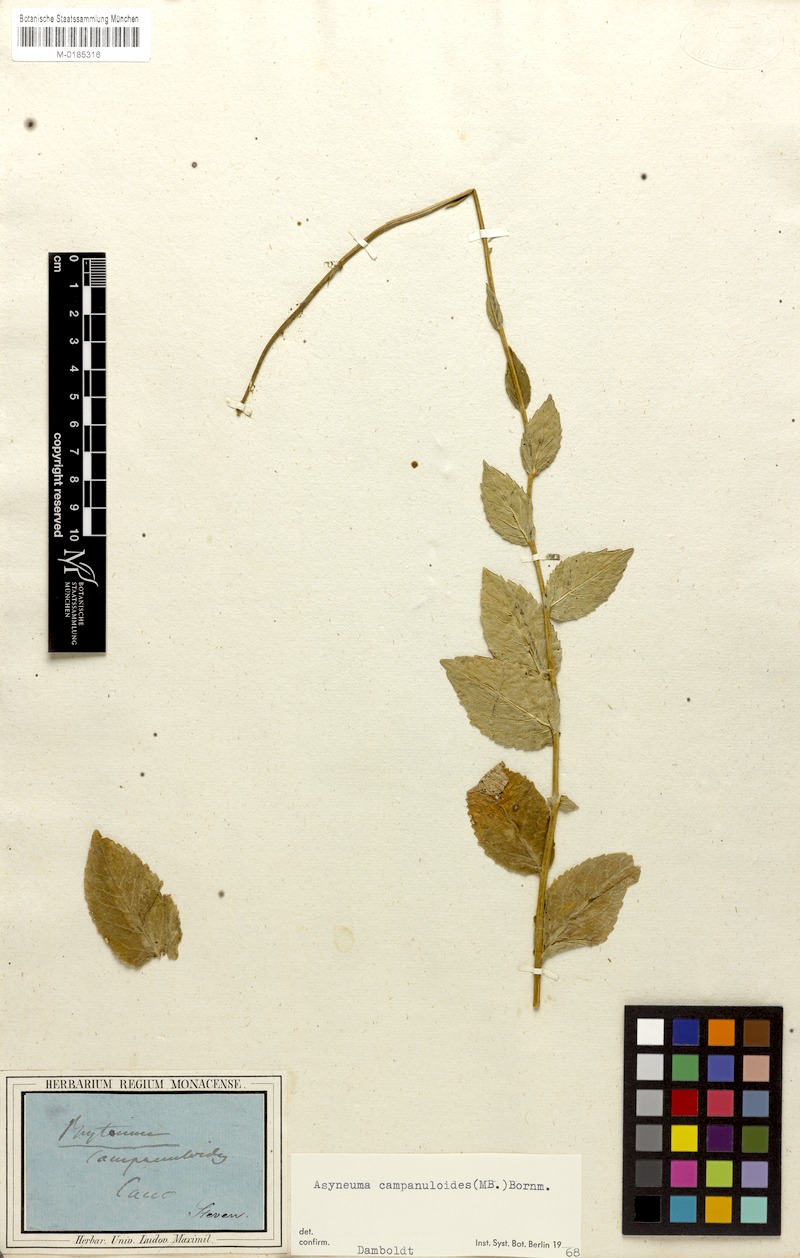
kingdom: Plantae
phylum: Tracheophyta
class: Magnoliopsida
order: Asterales
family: Campanulaceae
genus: Asyneuma
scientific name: Asyneuma campanuloides
